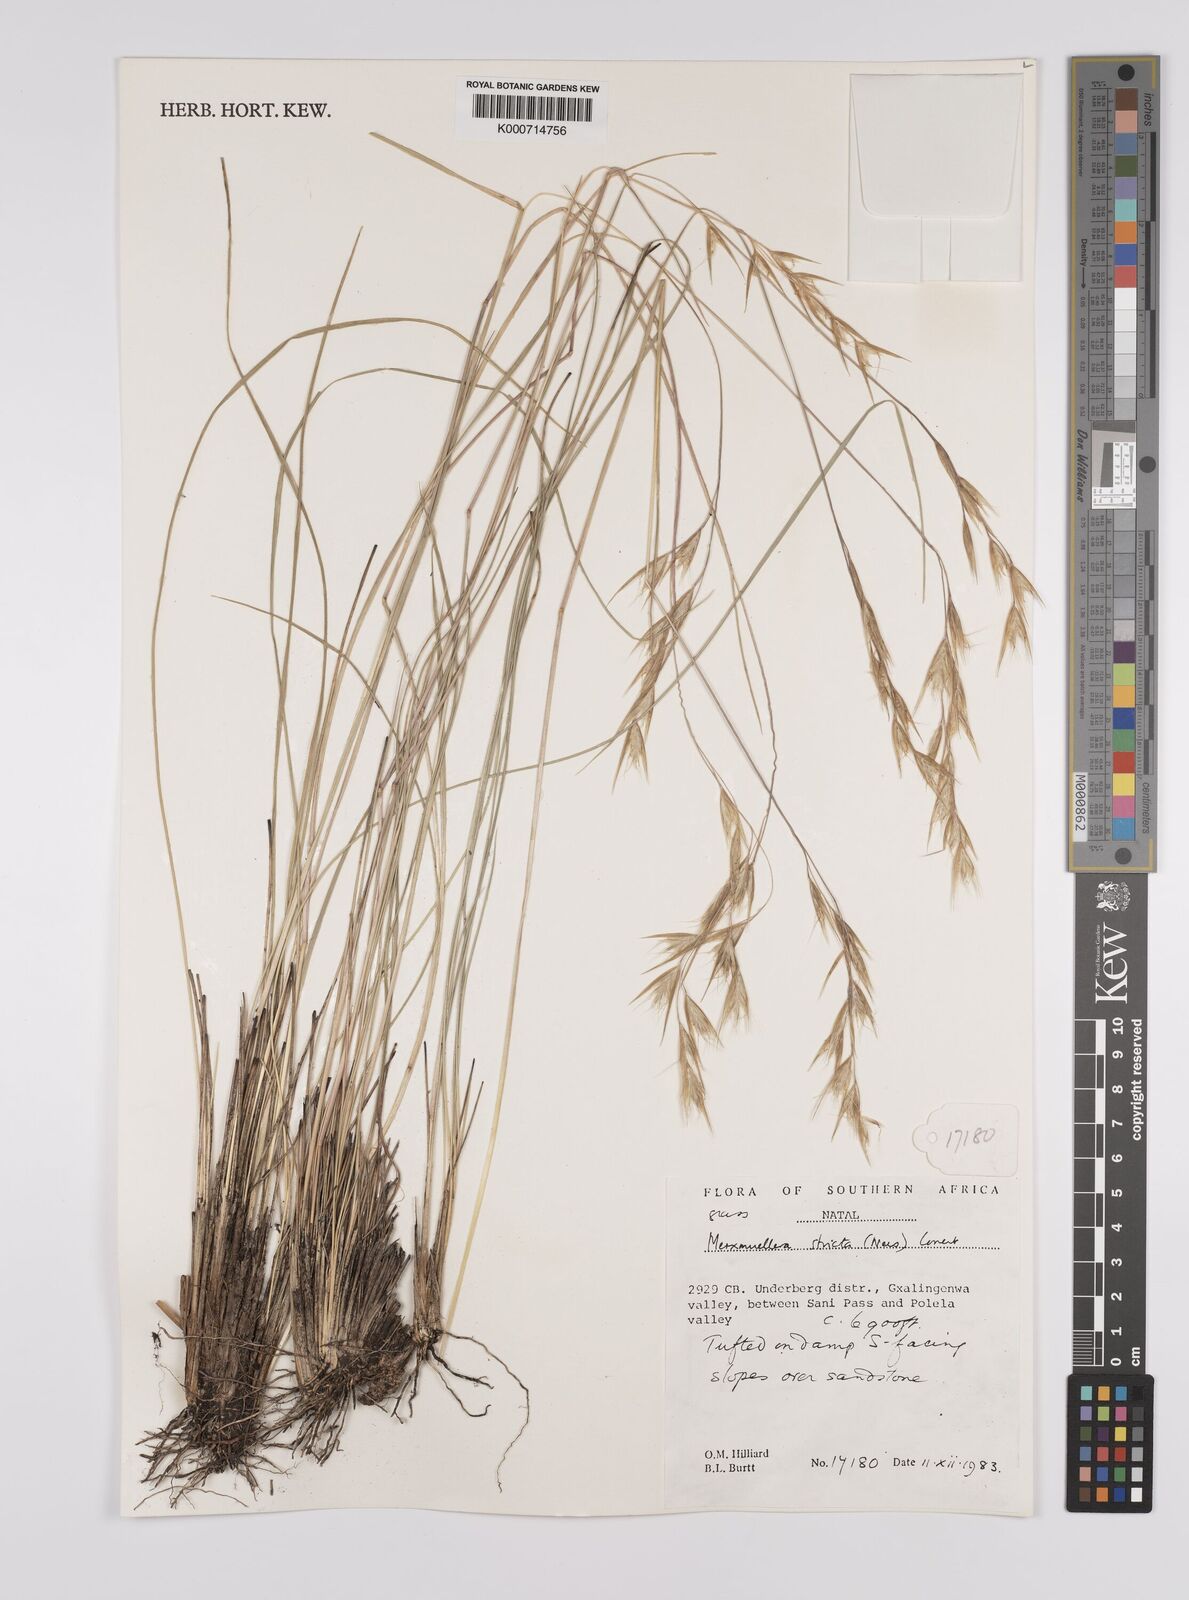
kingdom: Plantae
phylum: Tracheophyta
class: Liliopsida
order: Poales
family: Poaceae
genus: Rytidosperma
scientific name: Rytidosperma
